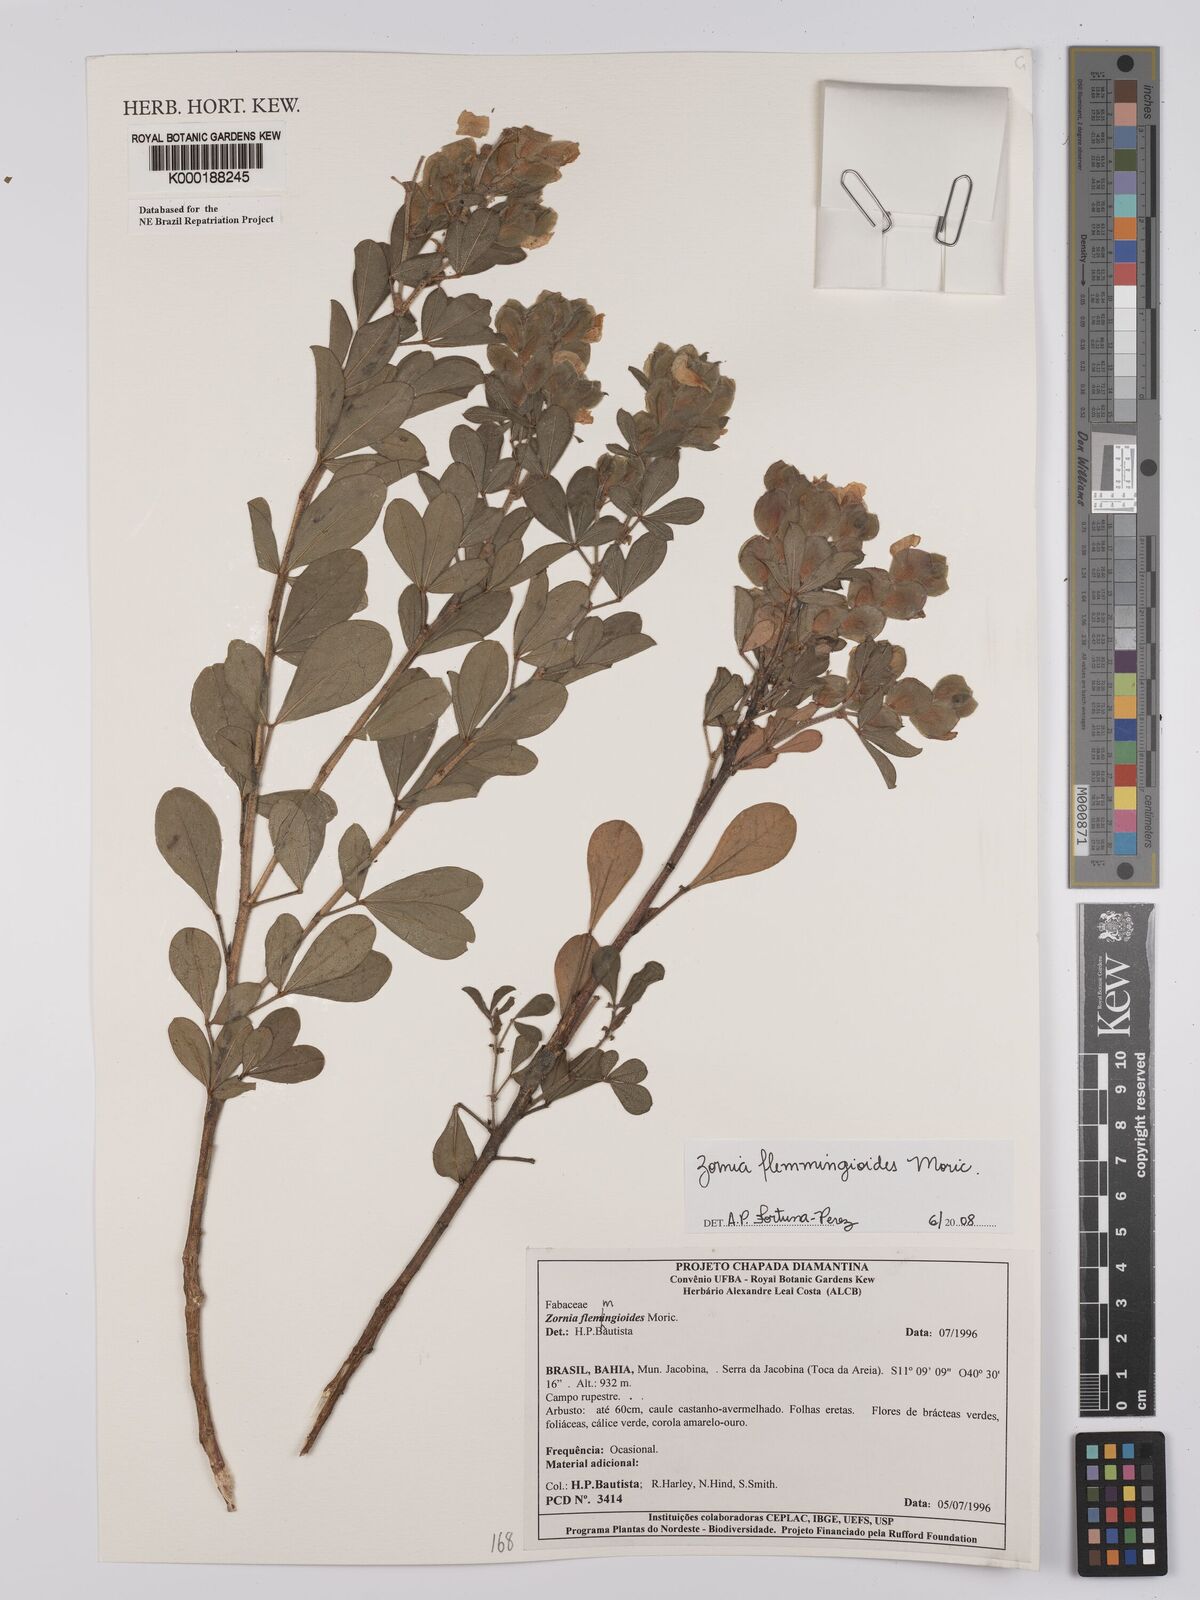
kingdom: Plantae
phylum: Tracheophyta
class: Magnoliopsida
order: Fabales
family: Fabaceae
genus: Zornia
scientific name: Zornia flemmingioides
